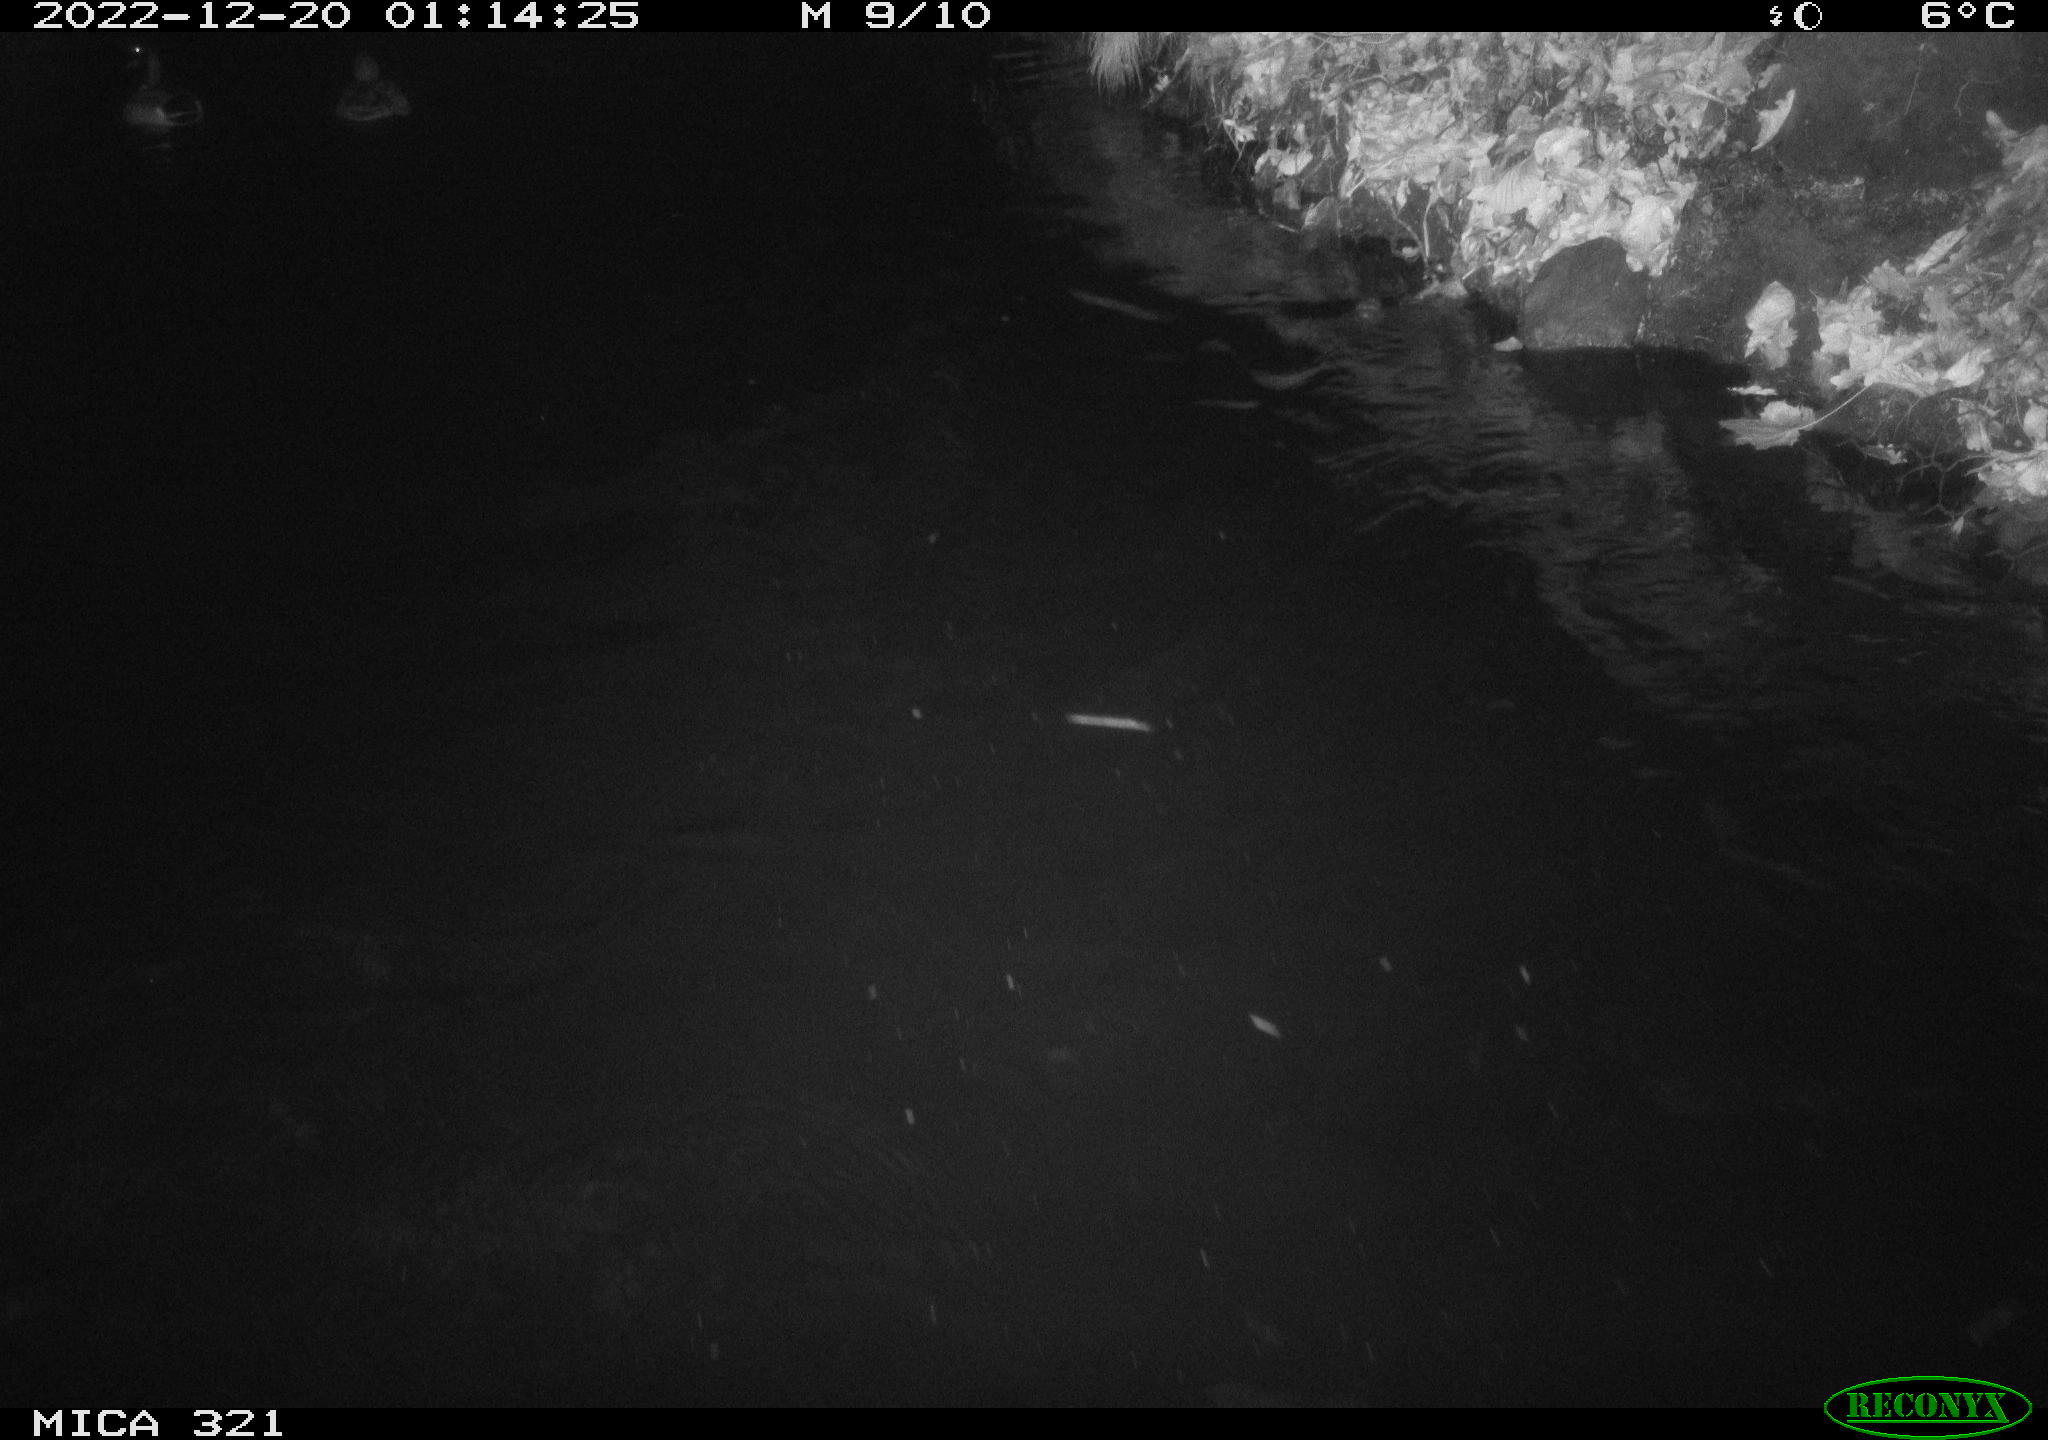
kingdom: Animalia
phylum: Chordata
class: Aves
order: Anseriformes
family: Anatidae
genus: Anas
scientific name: Anas
